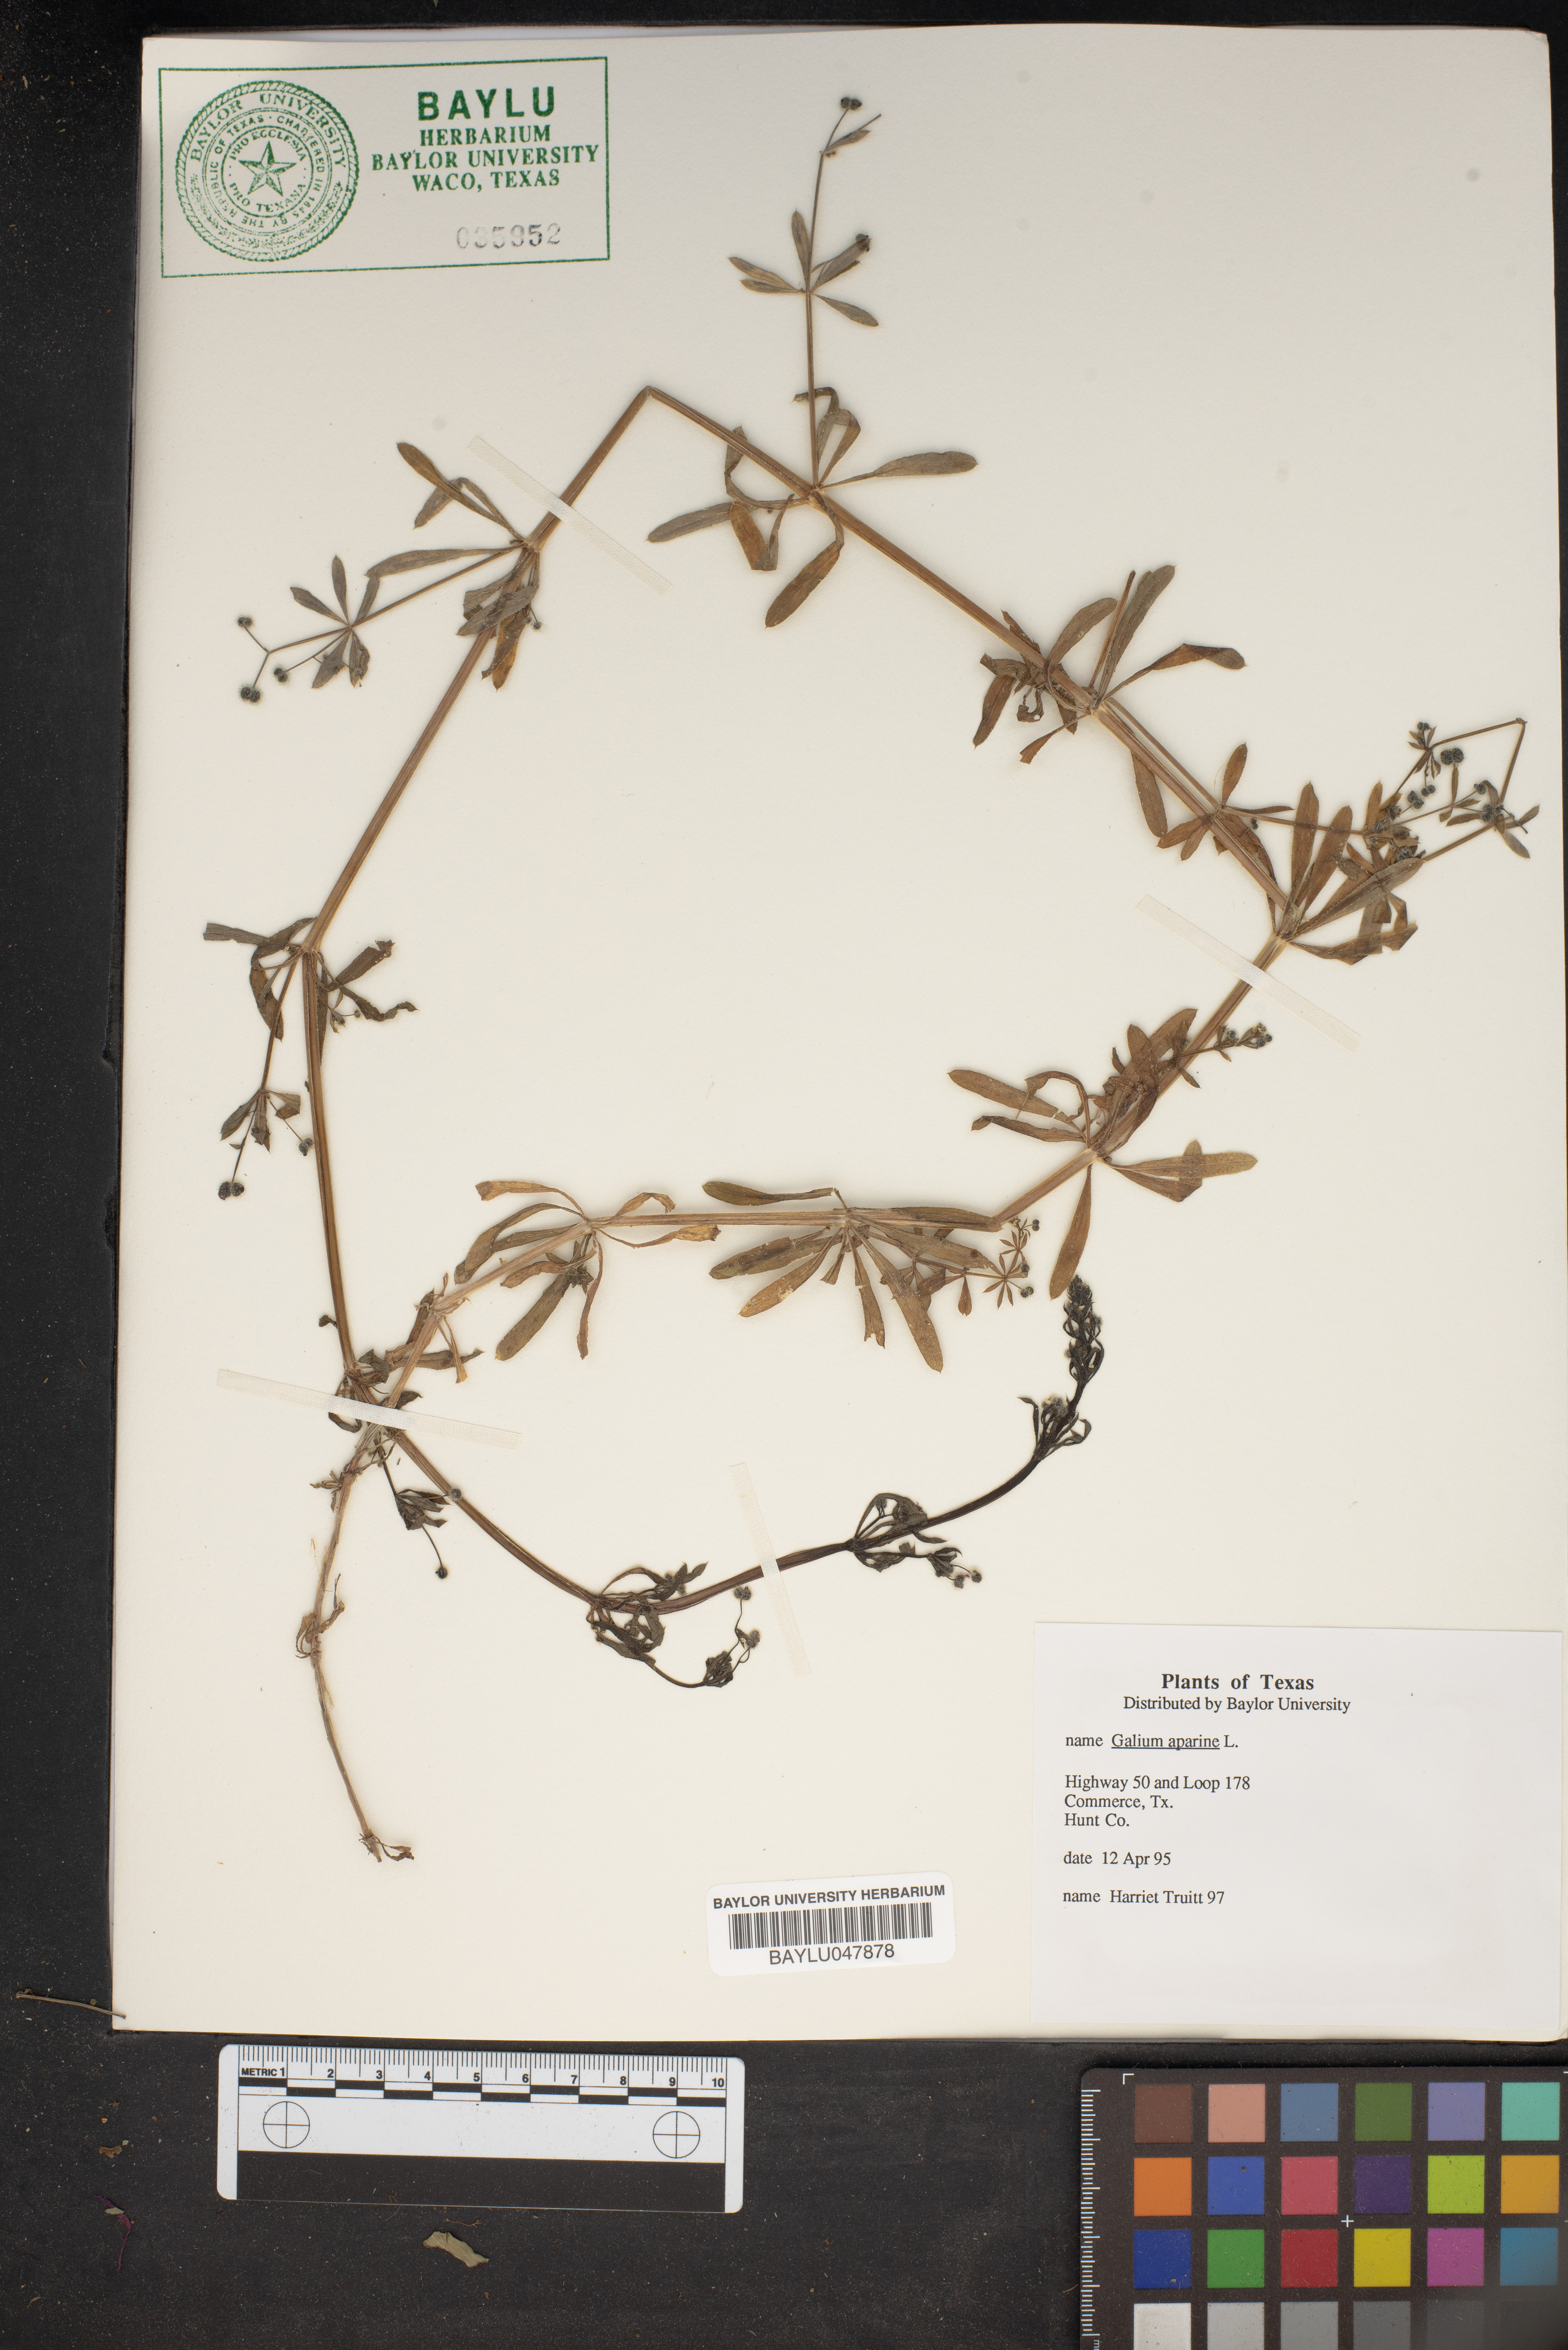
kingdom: Plantae
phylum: Tracheophyta
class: Magnoliopsida
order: Gentianales
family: Rubiaceae
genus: Galium
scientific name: Galium aparine
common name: Cleavers
